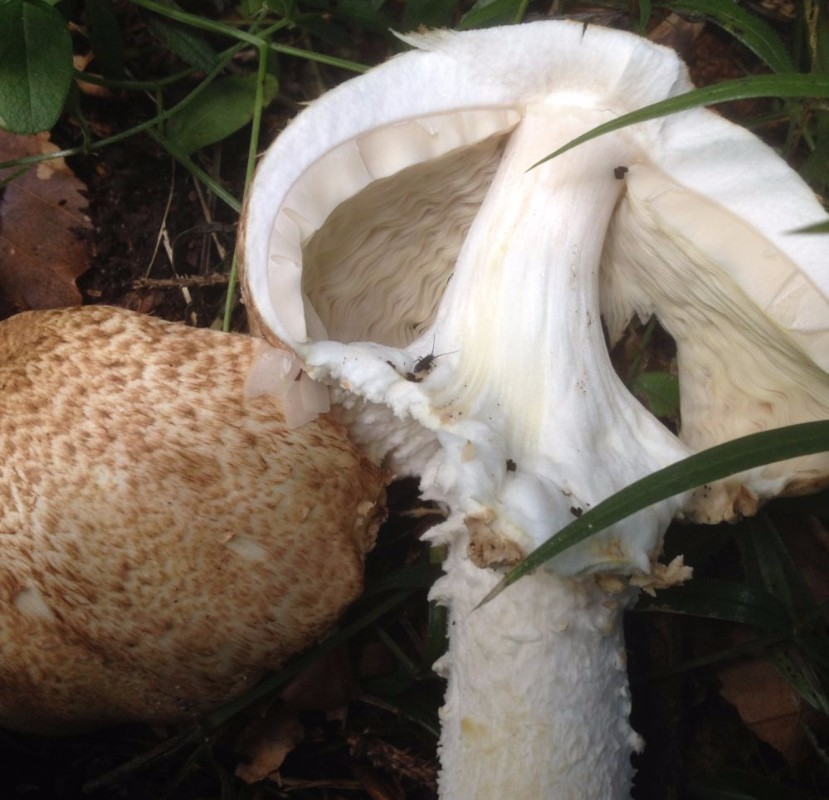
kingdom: Fungi
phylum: Basidiomycota
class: Agaricomycetes
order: Agaricales
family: Agaricaceae
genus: Agaricus
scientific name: Agaricus augustus
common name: prægtig champignon
